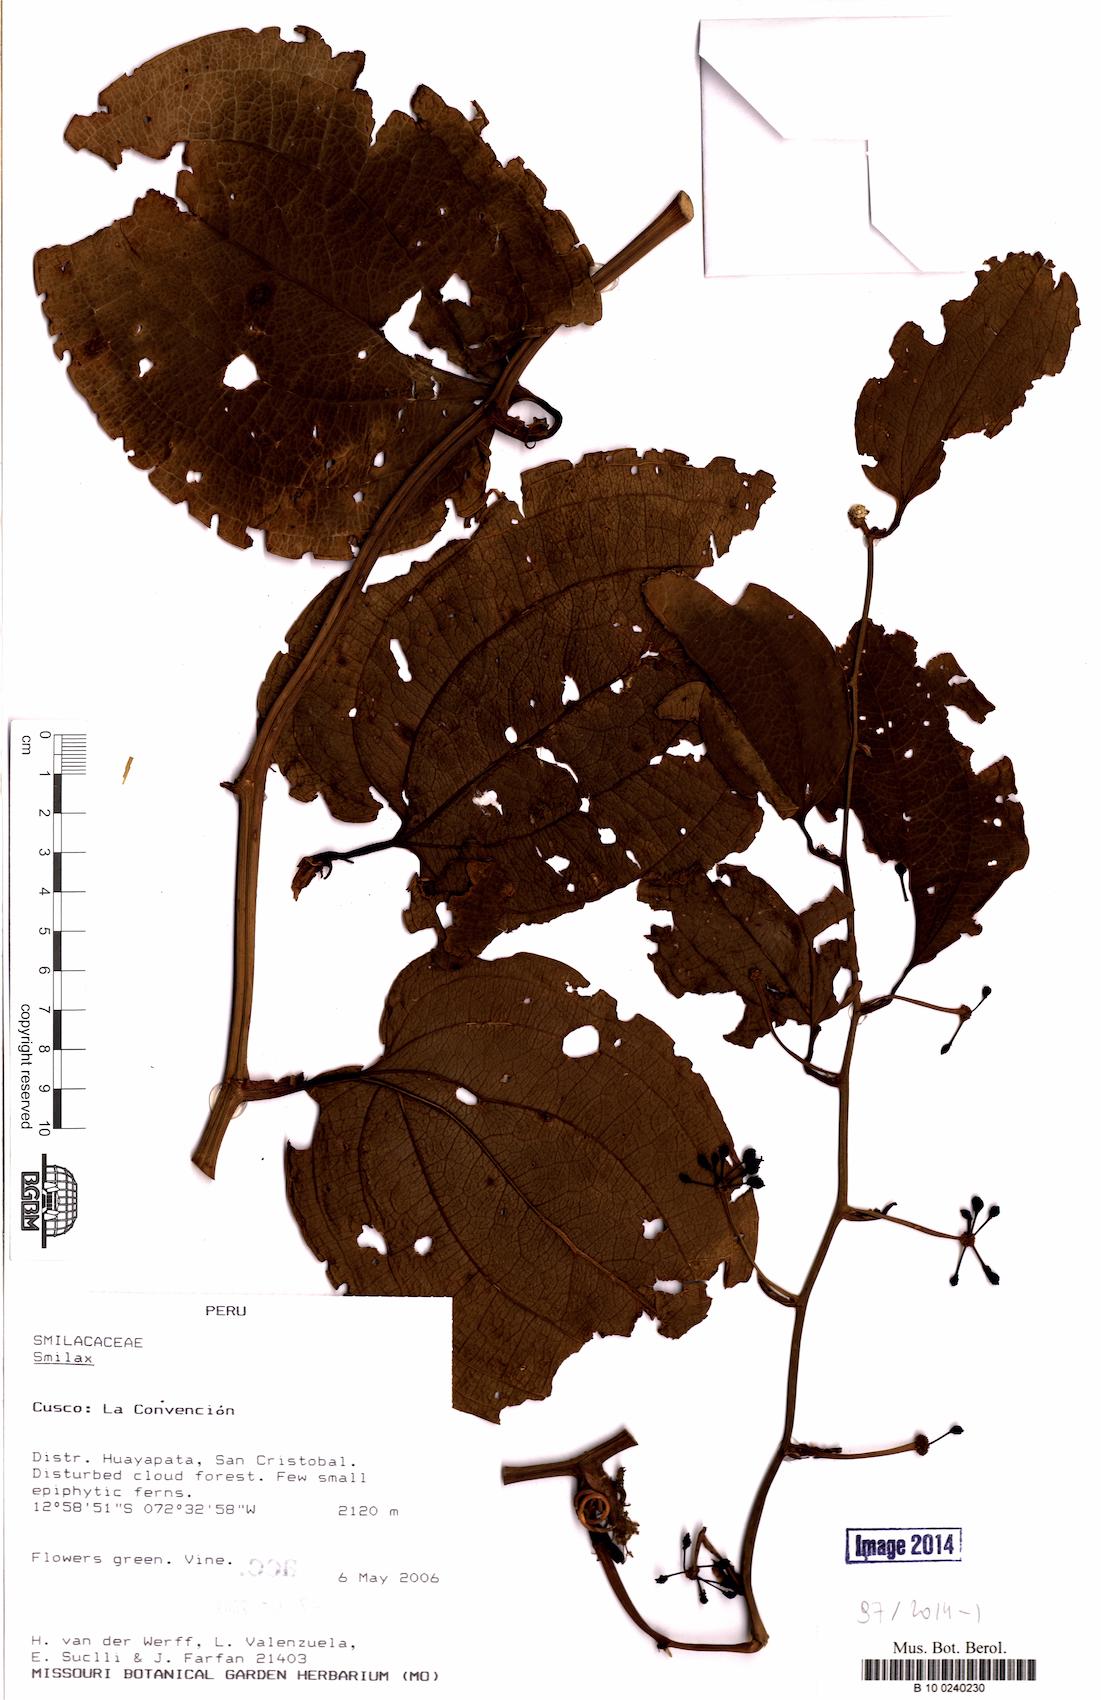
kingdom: Plantae
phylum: Tracheophyta
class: Liliopsida
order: Liliales
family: Smilacaceae
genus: Smilax
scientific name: Smilax
